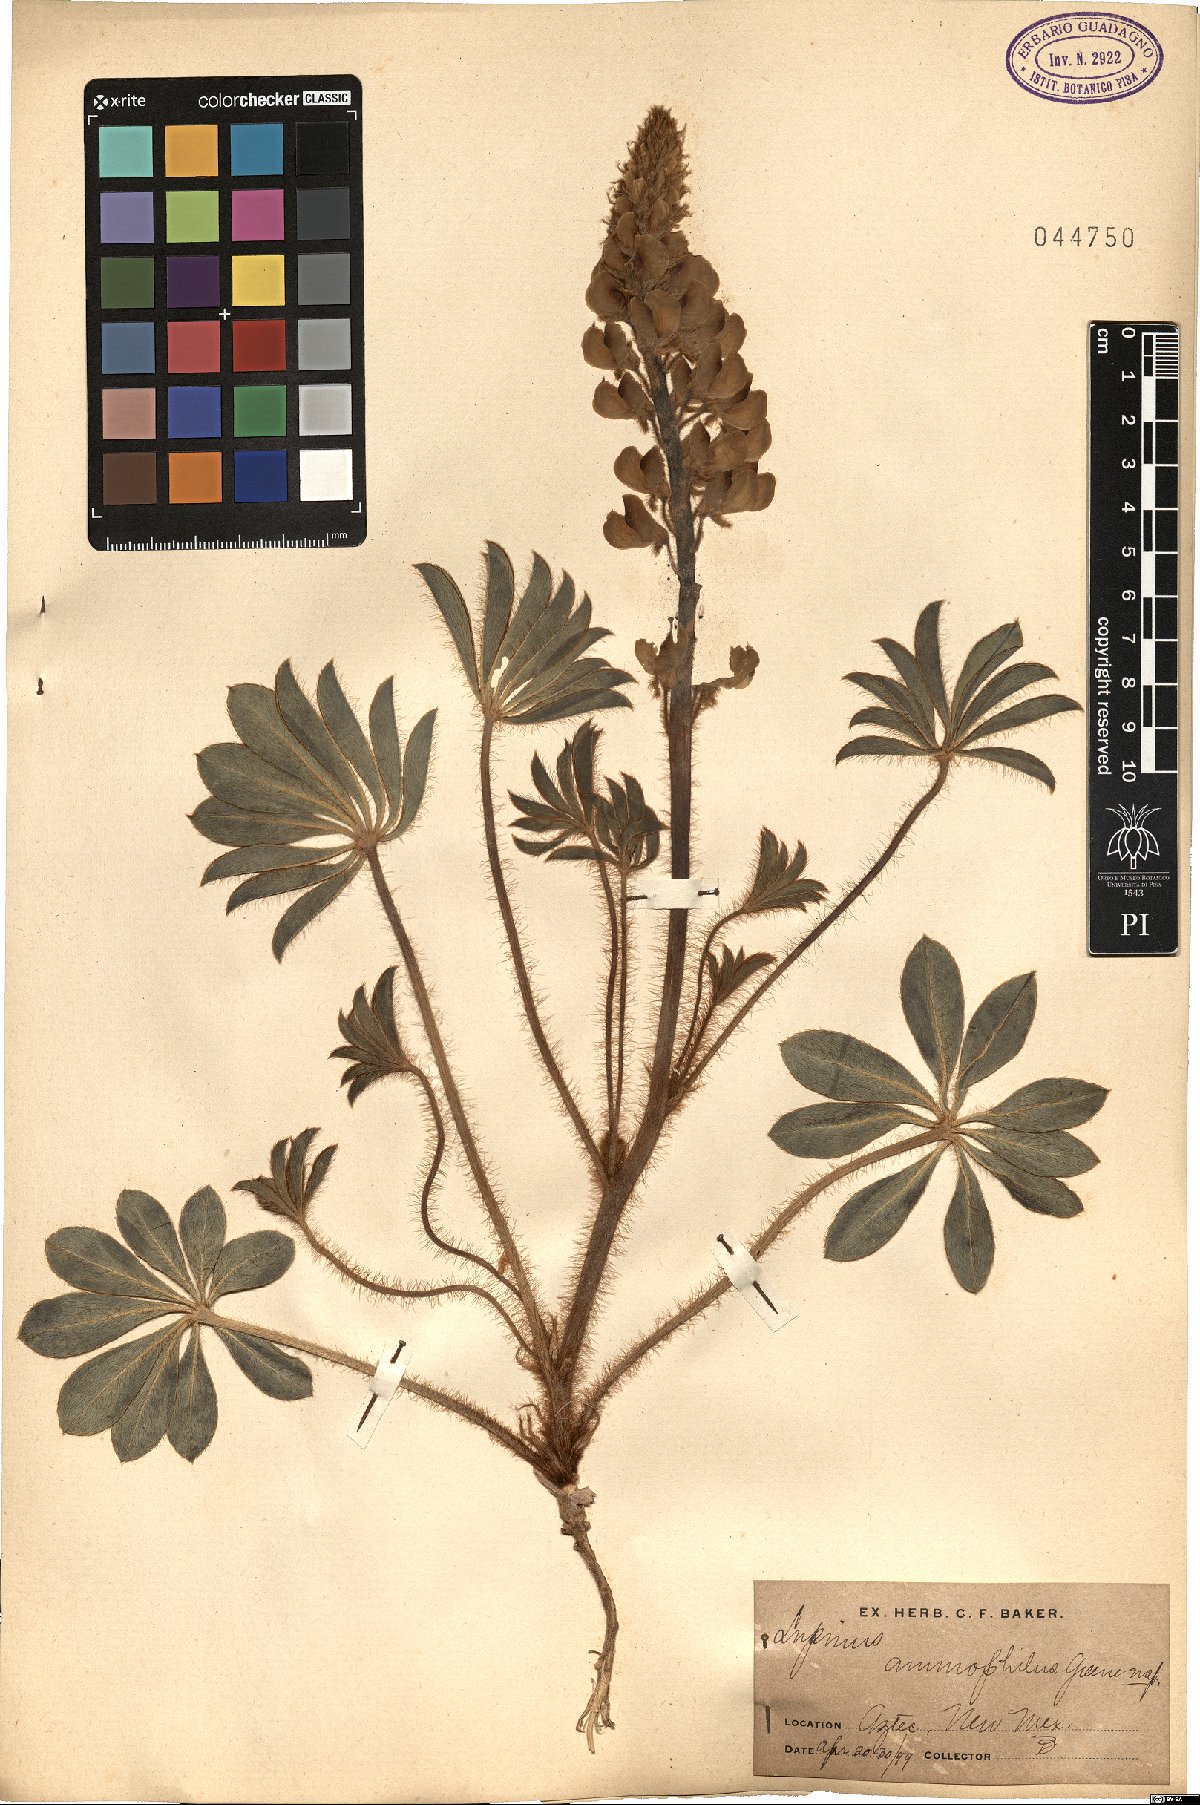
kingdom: Plantae
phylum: Tracheophyta
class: Magnoliopsida
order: Fabales
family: Fabaceae
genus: Lupinus
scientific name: Lupinus ammophilus
